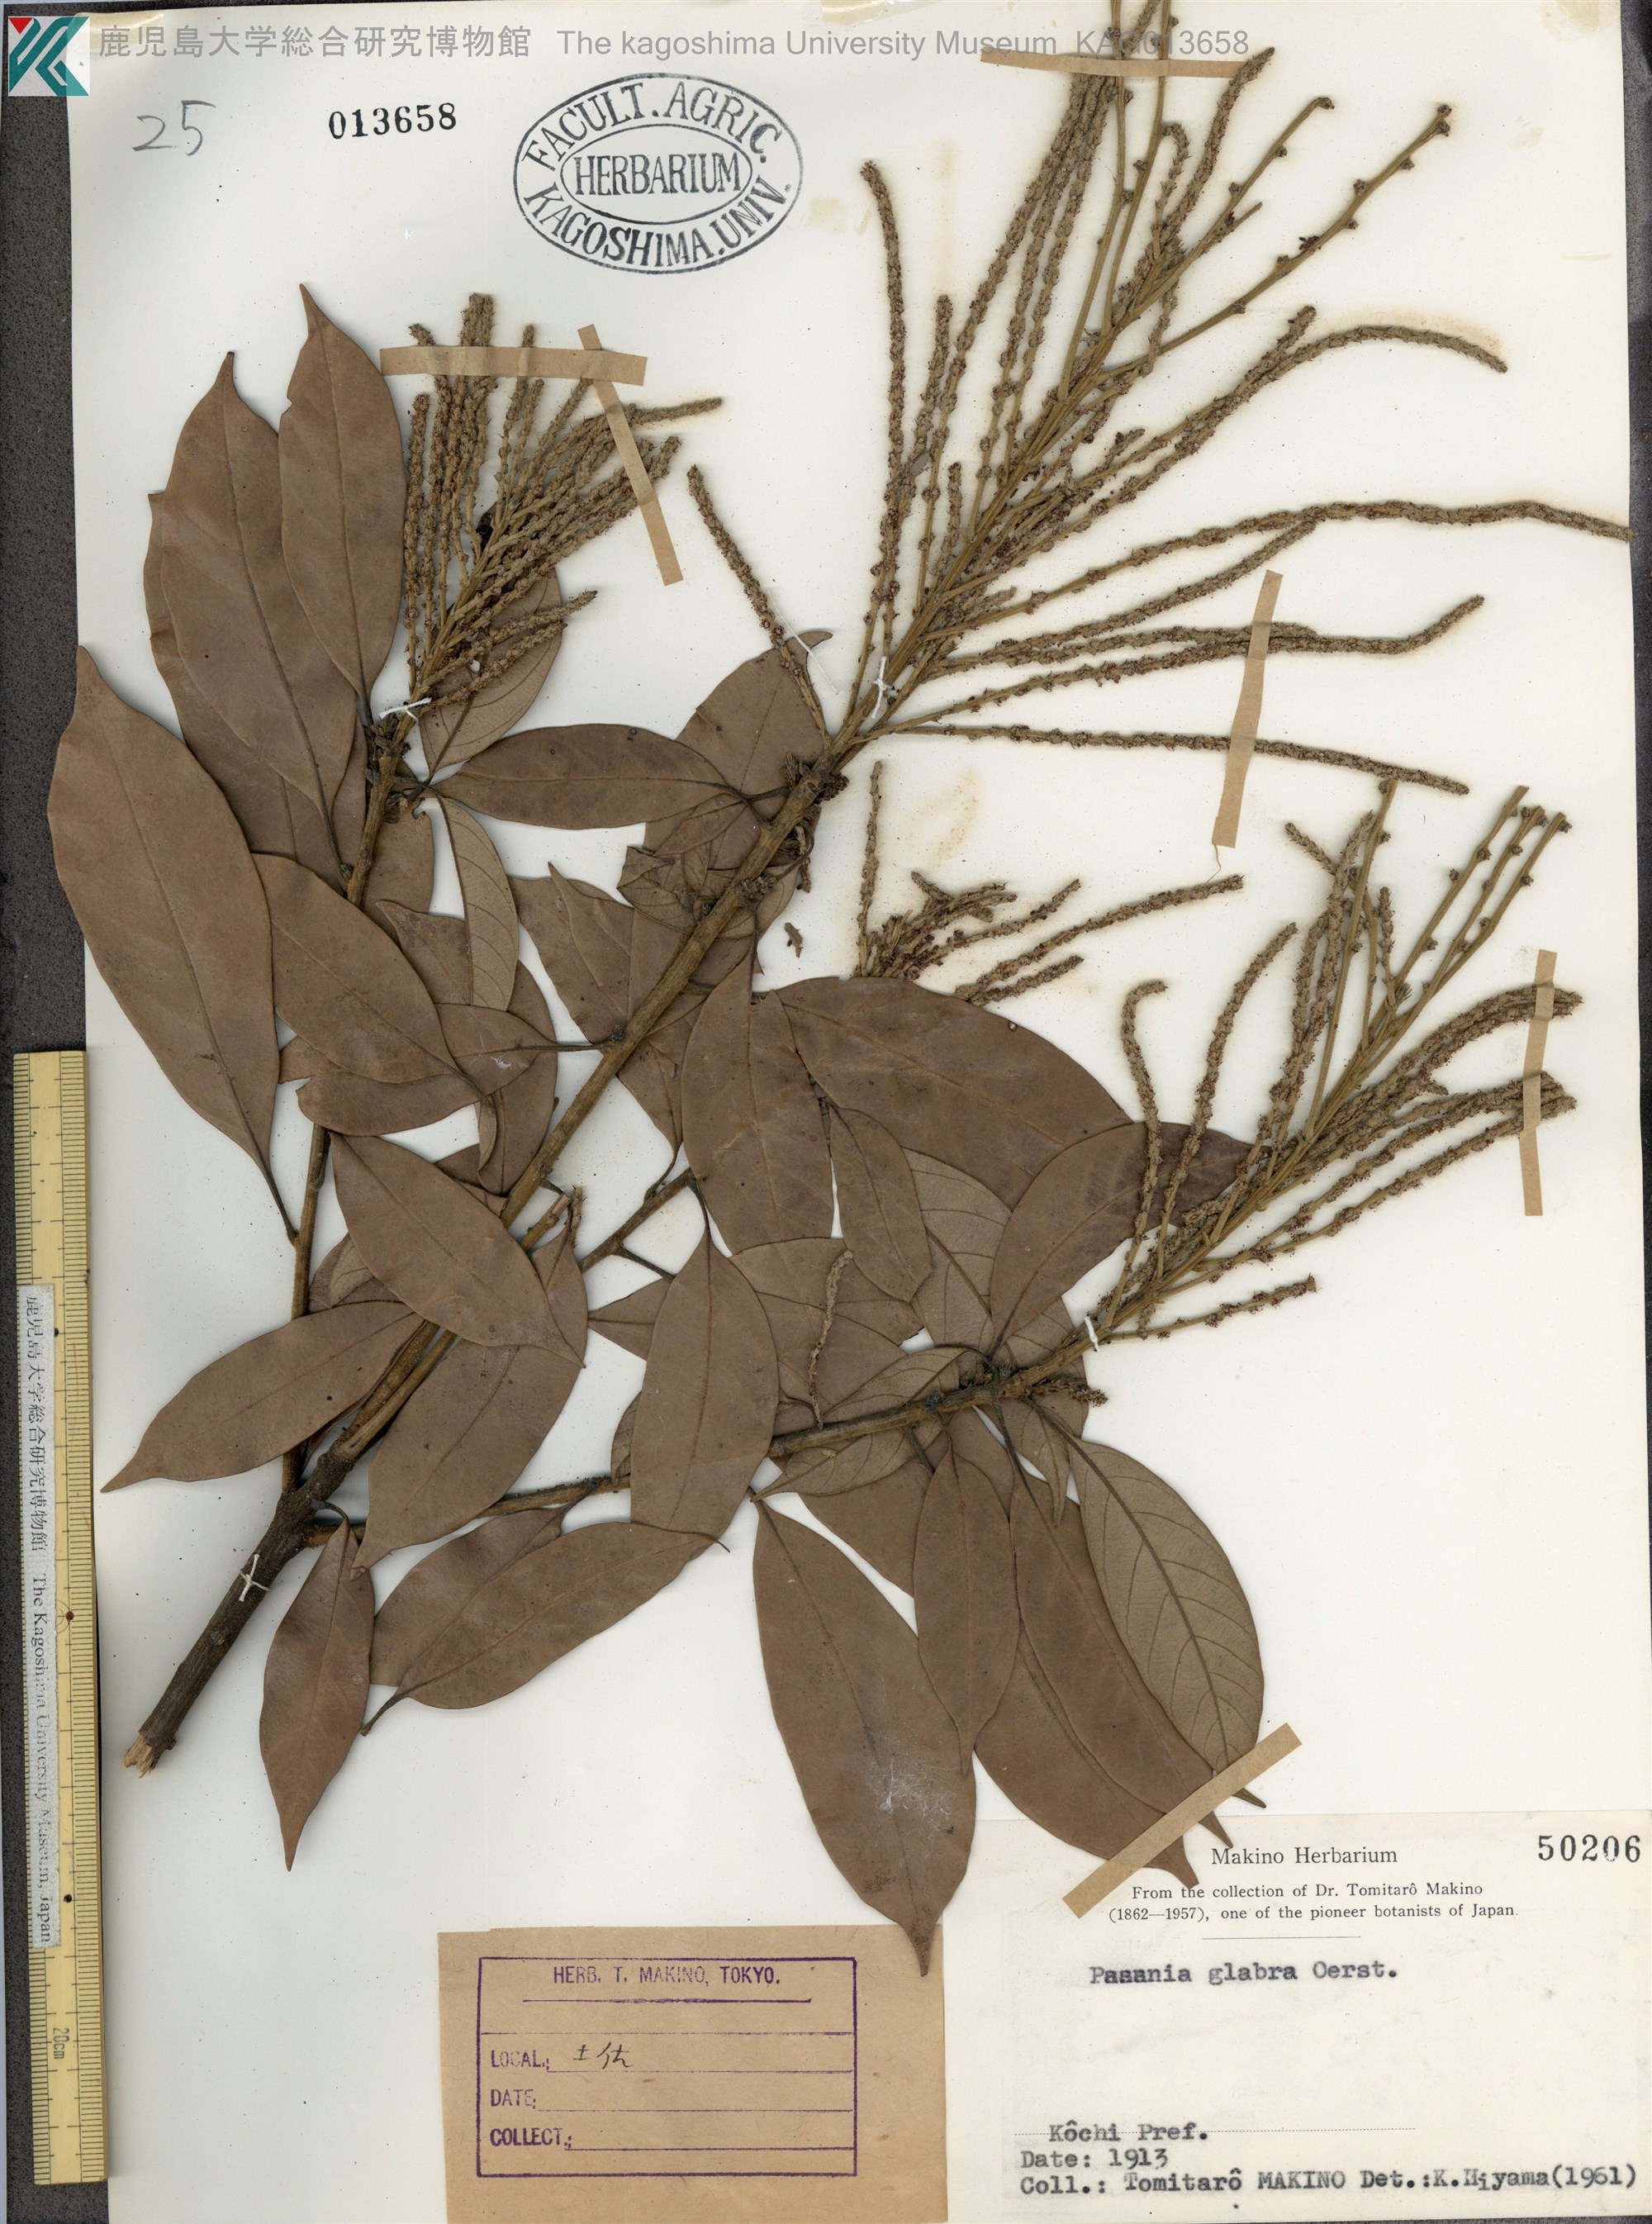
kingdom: Plantae
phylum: Tracheophyta
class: Magnoliopsida
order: Fagales
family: Fagaceae
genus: Lithocarpus
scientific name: Lithocarpus glaber
